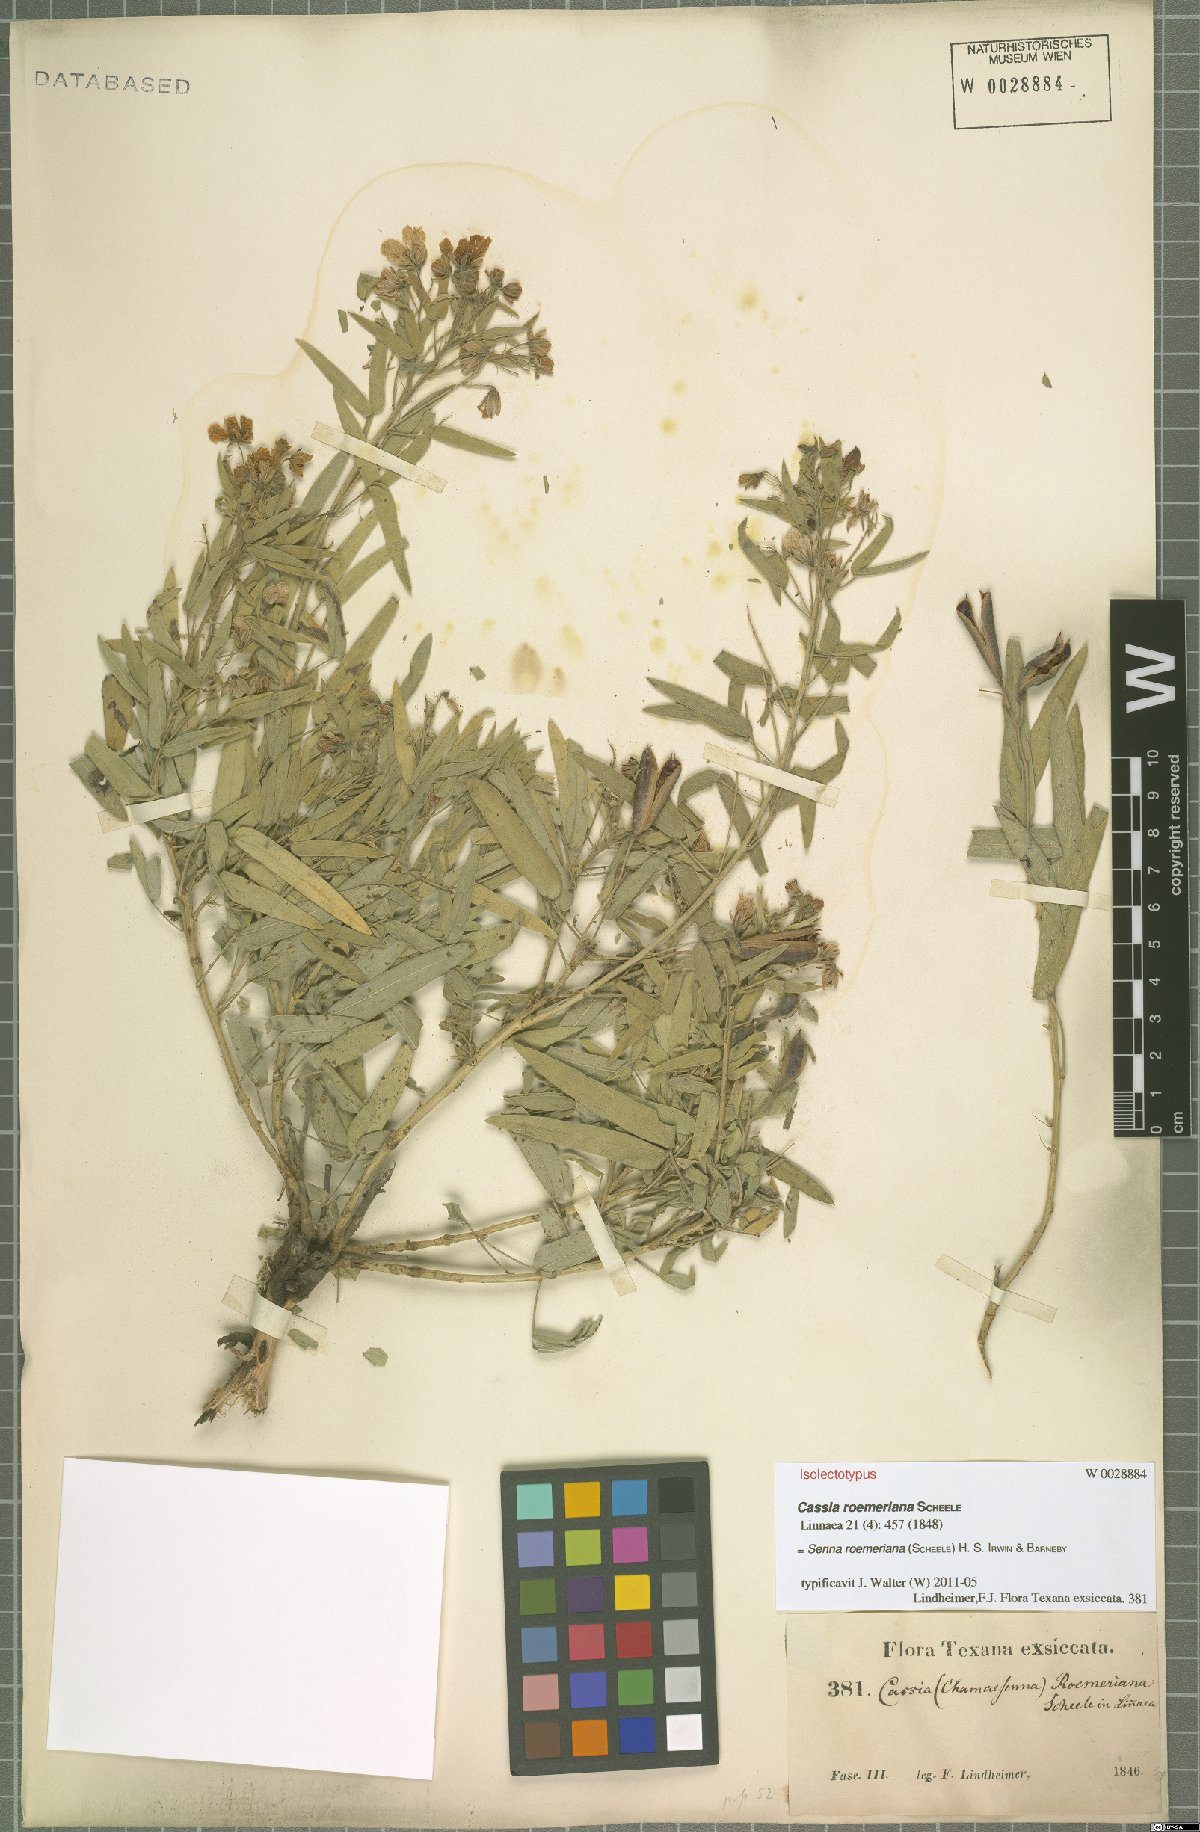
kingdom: Plantae
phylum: Tracheophyta
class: Magnoliopsida
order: Fabales
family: Fabaceae
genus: Senna
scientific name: Senna roemeriana
